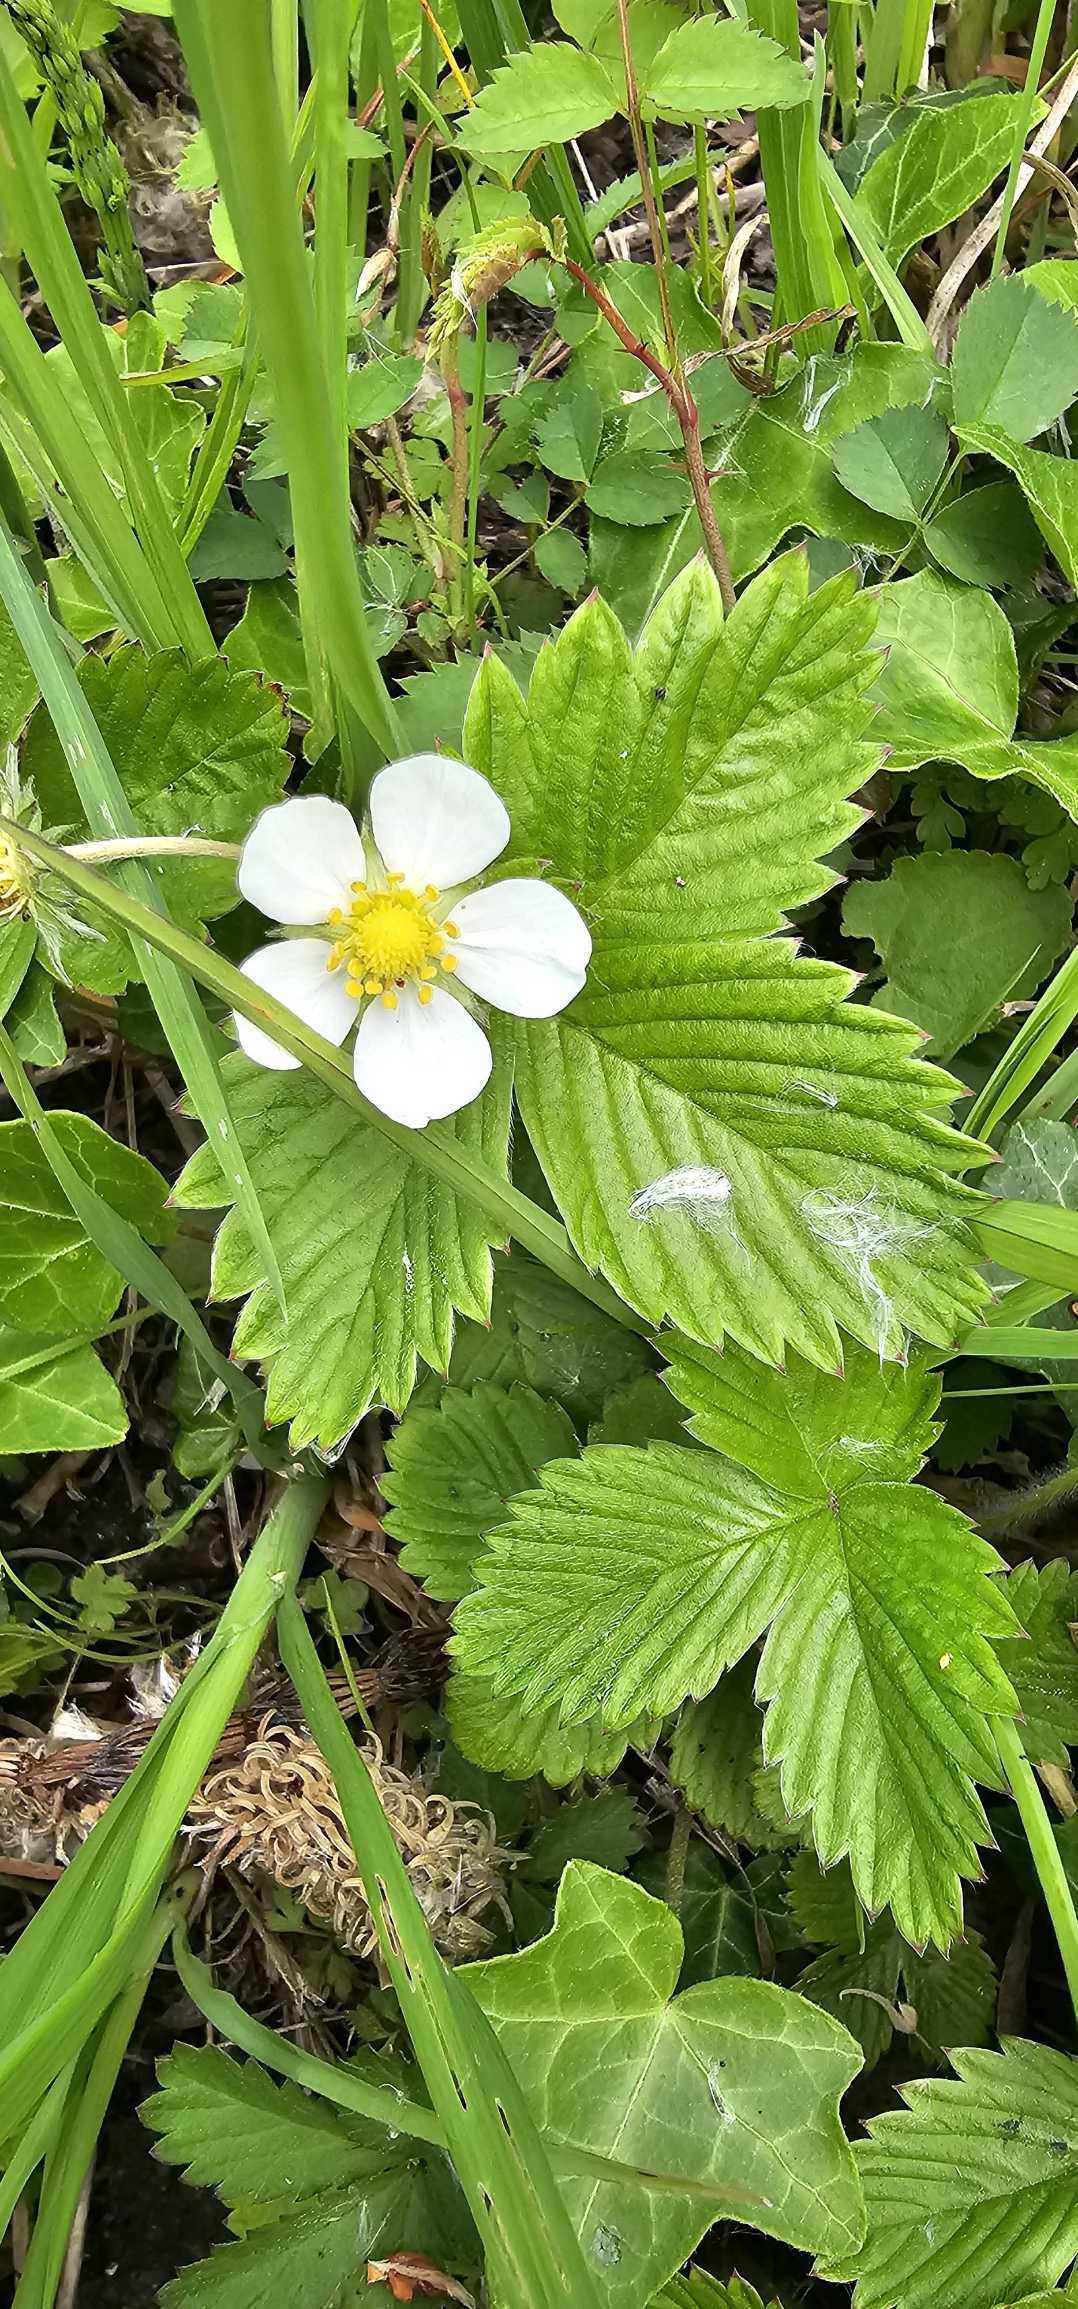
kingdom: Plantae
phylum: Tracheophyta
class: Magnoliopsida
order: Rosales
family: Rosaceae
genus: Fragaria
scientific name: Fragaria vesca
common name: Skov-jordbær
